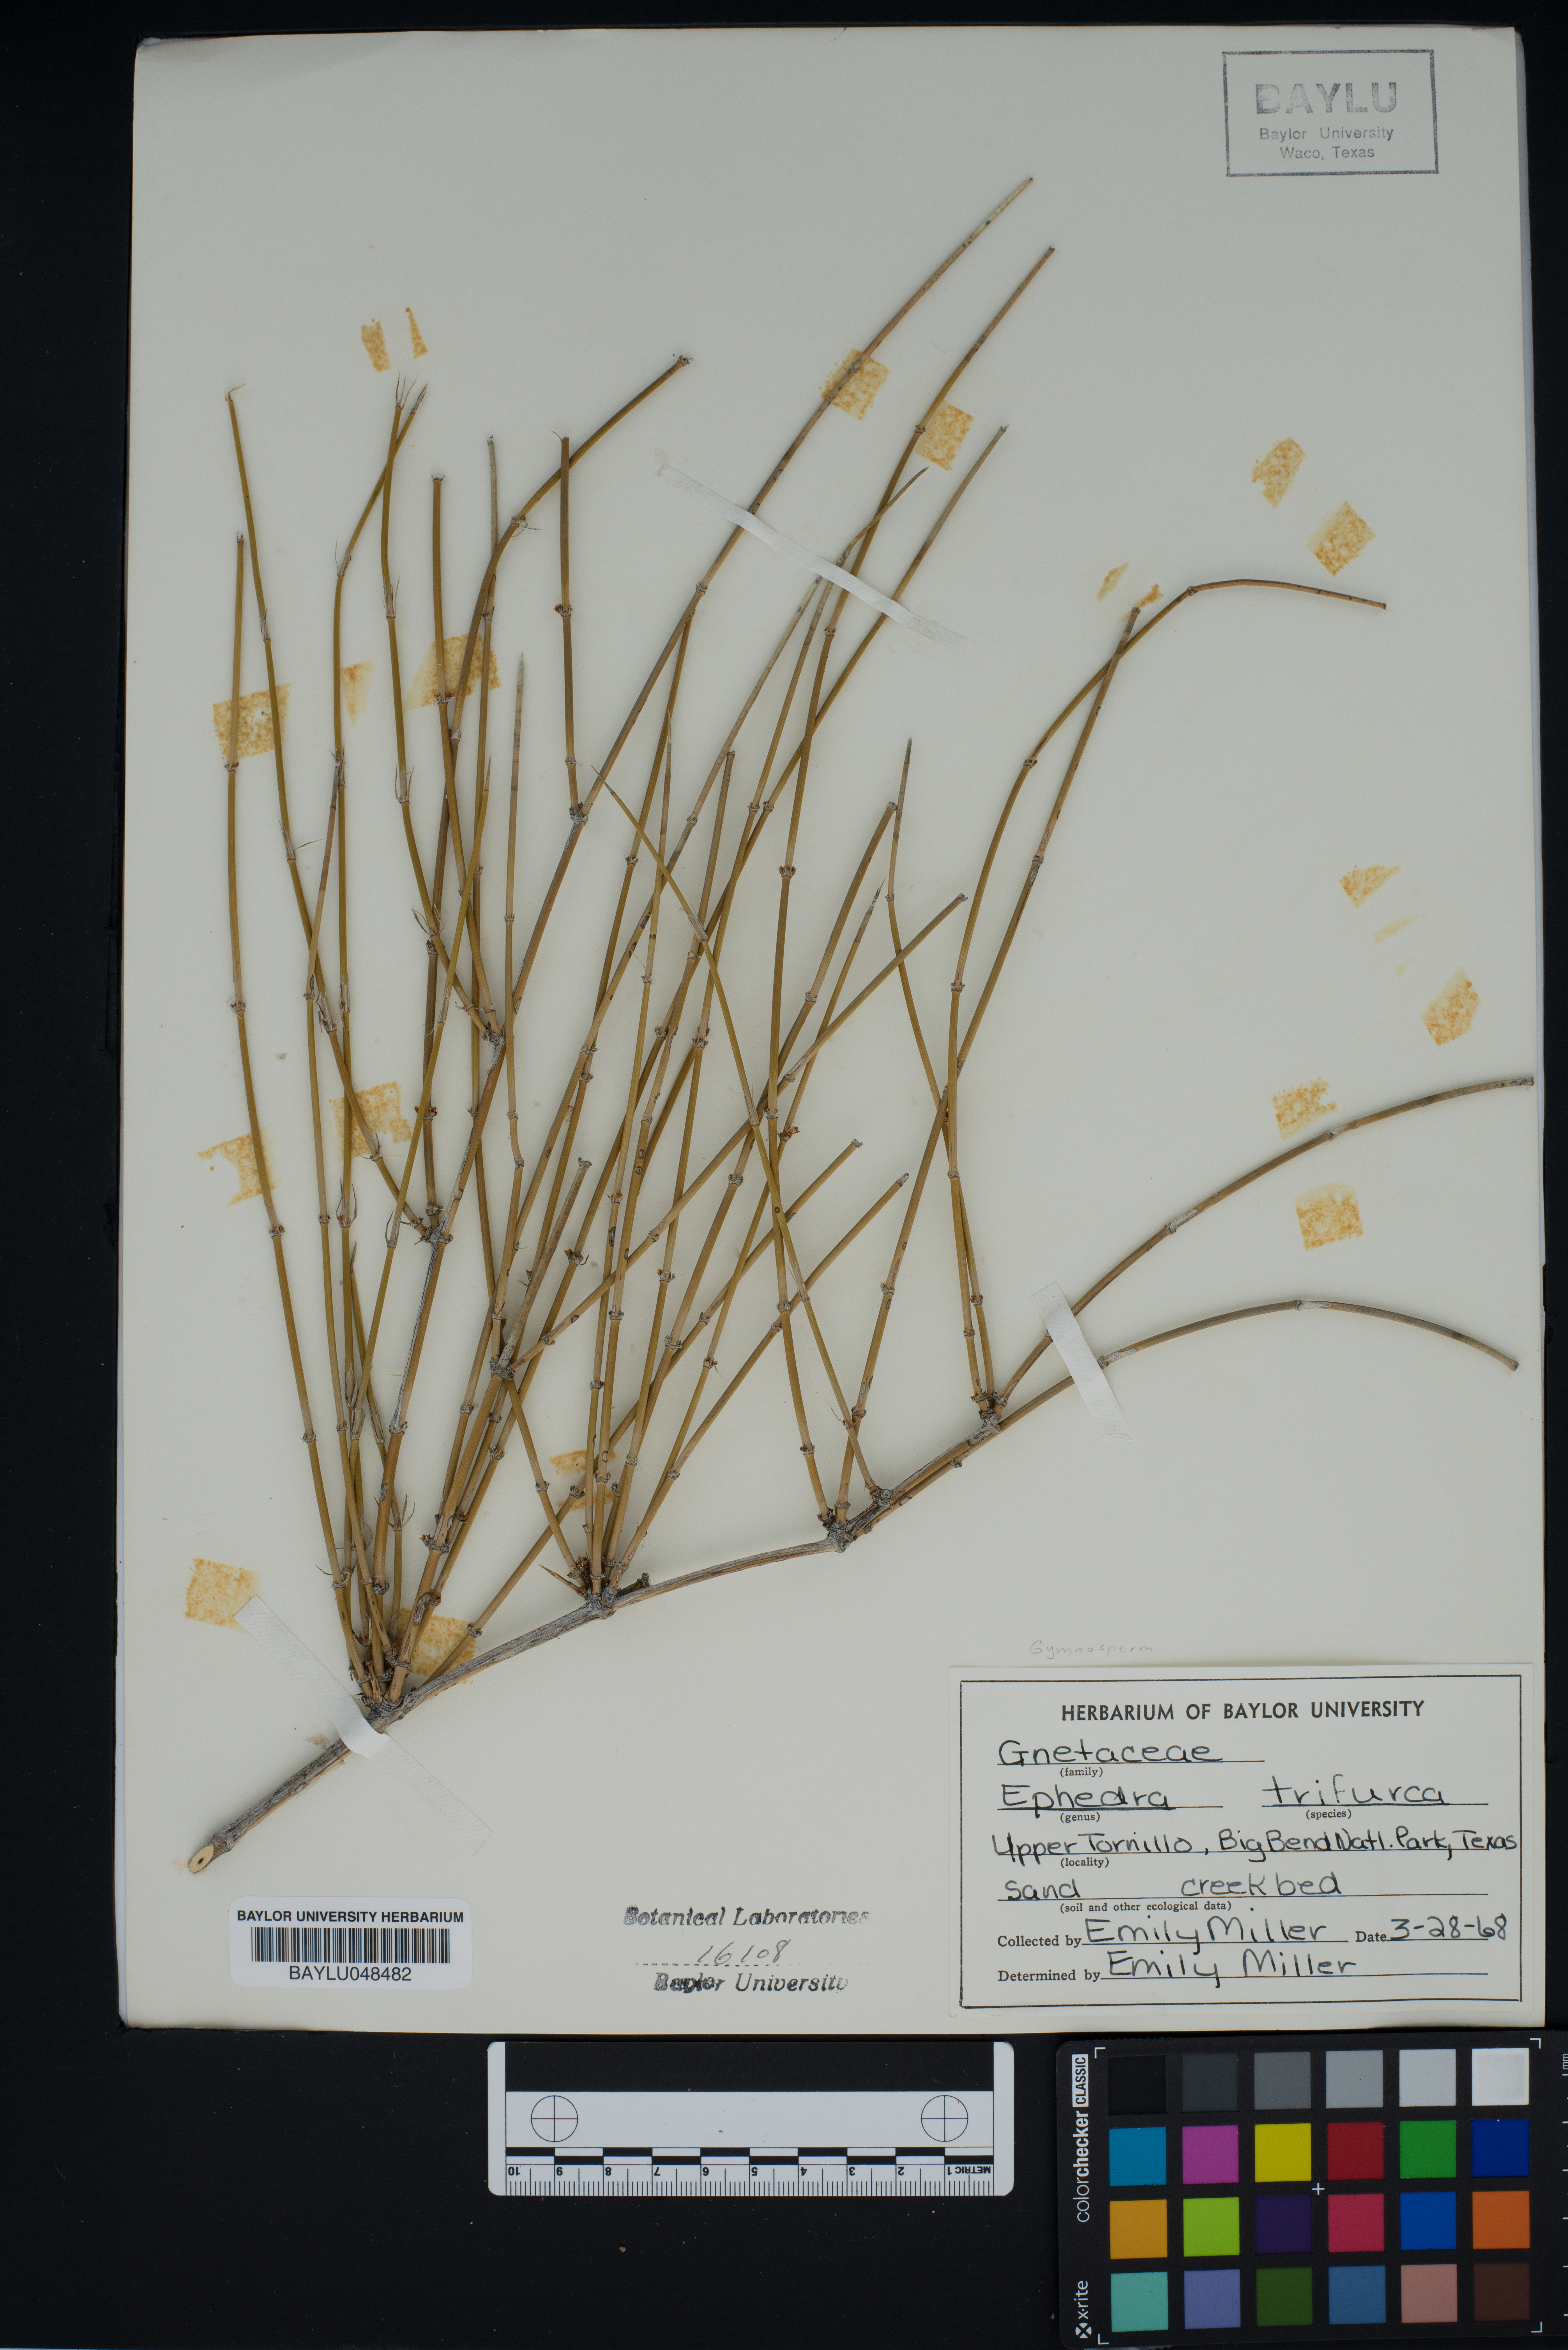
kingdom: Plantae
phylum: Tracheophyta
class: Gnetopsida
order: Ephedrales
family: Ephedraceae
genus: Ephedra
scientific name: Ephedra trifurca
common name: Mexican-tea
